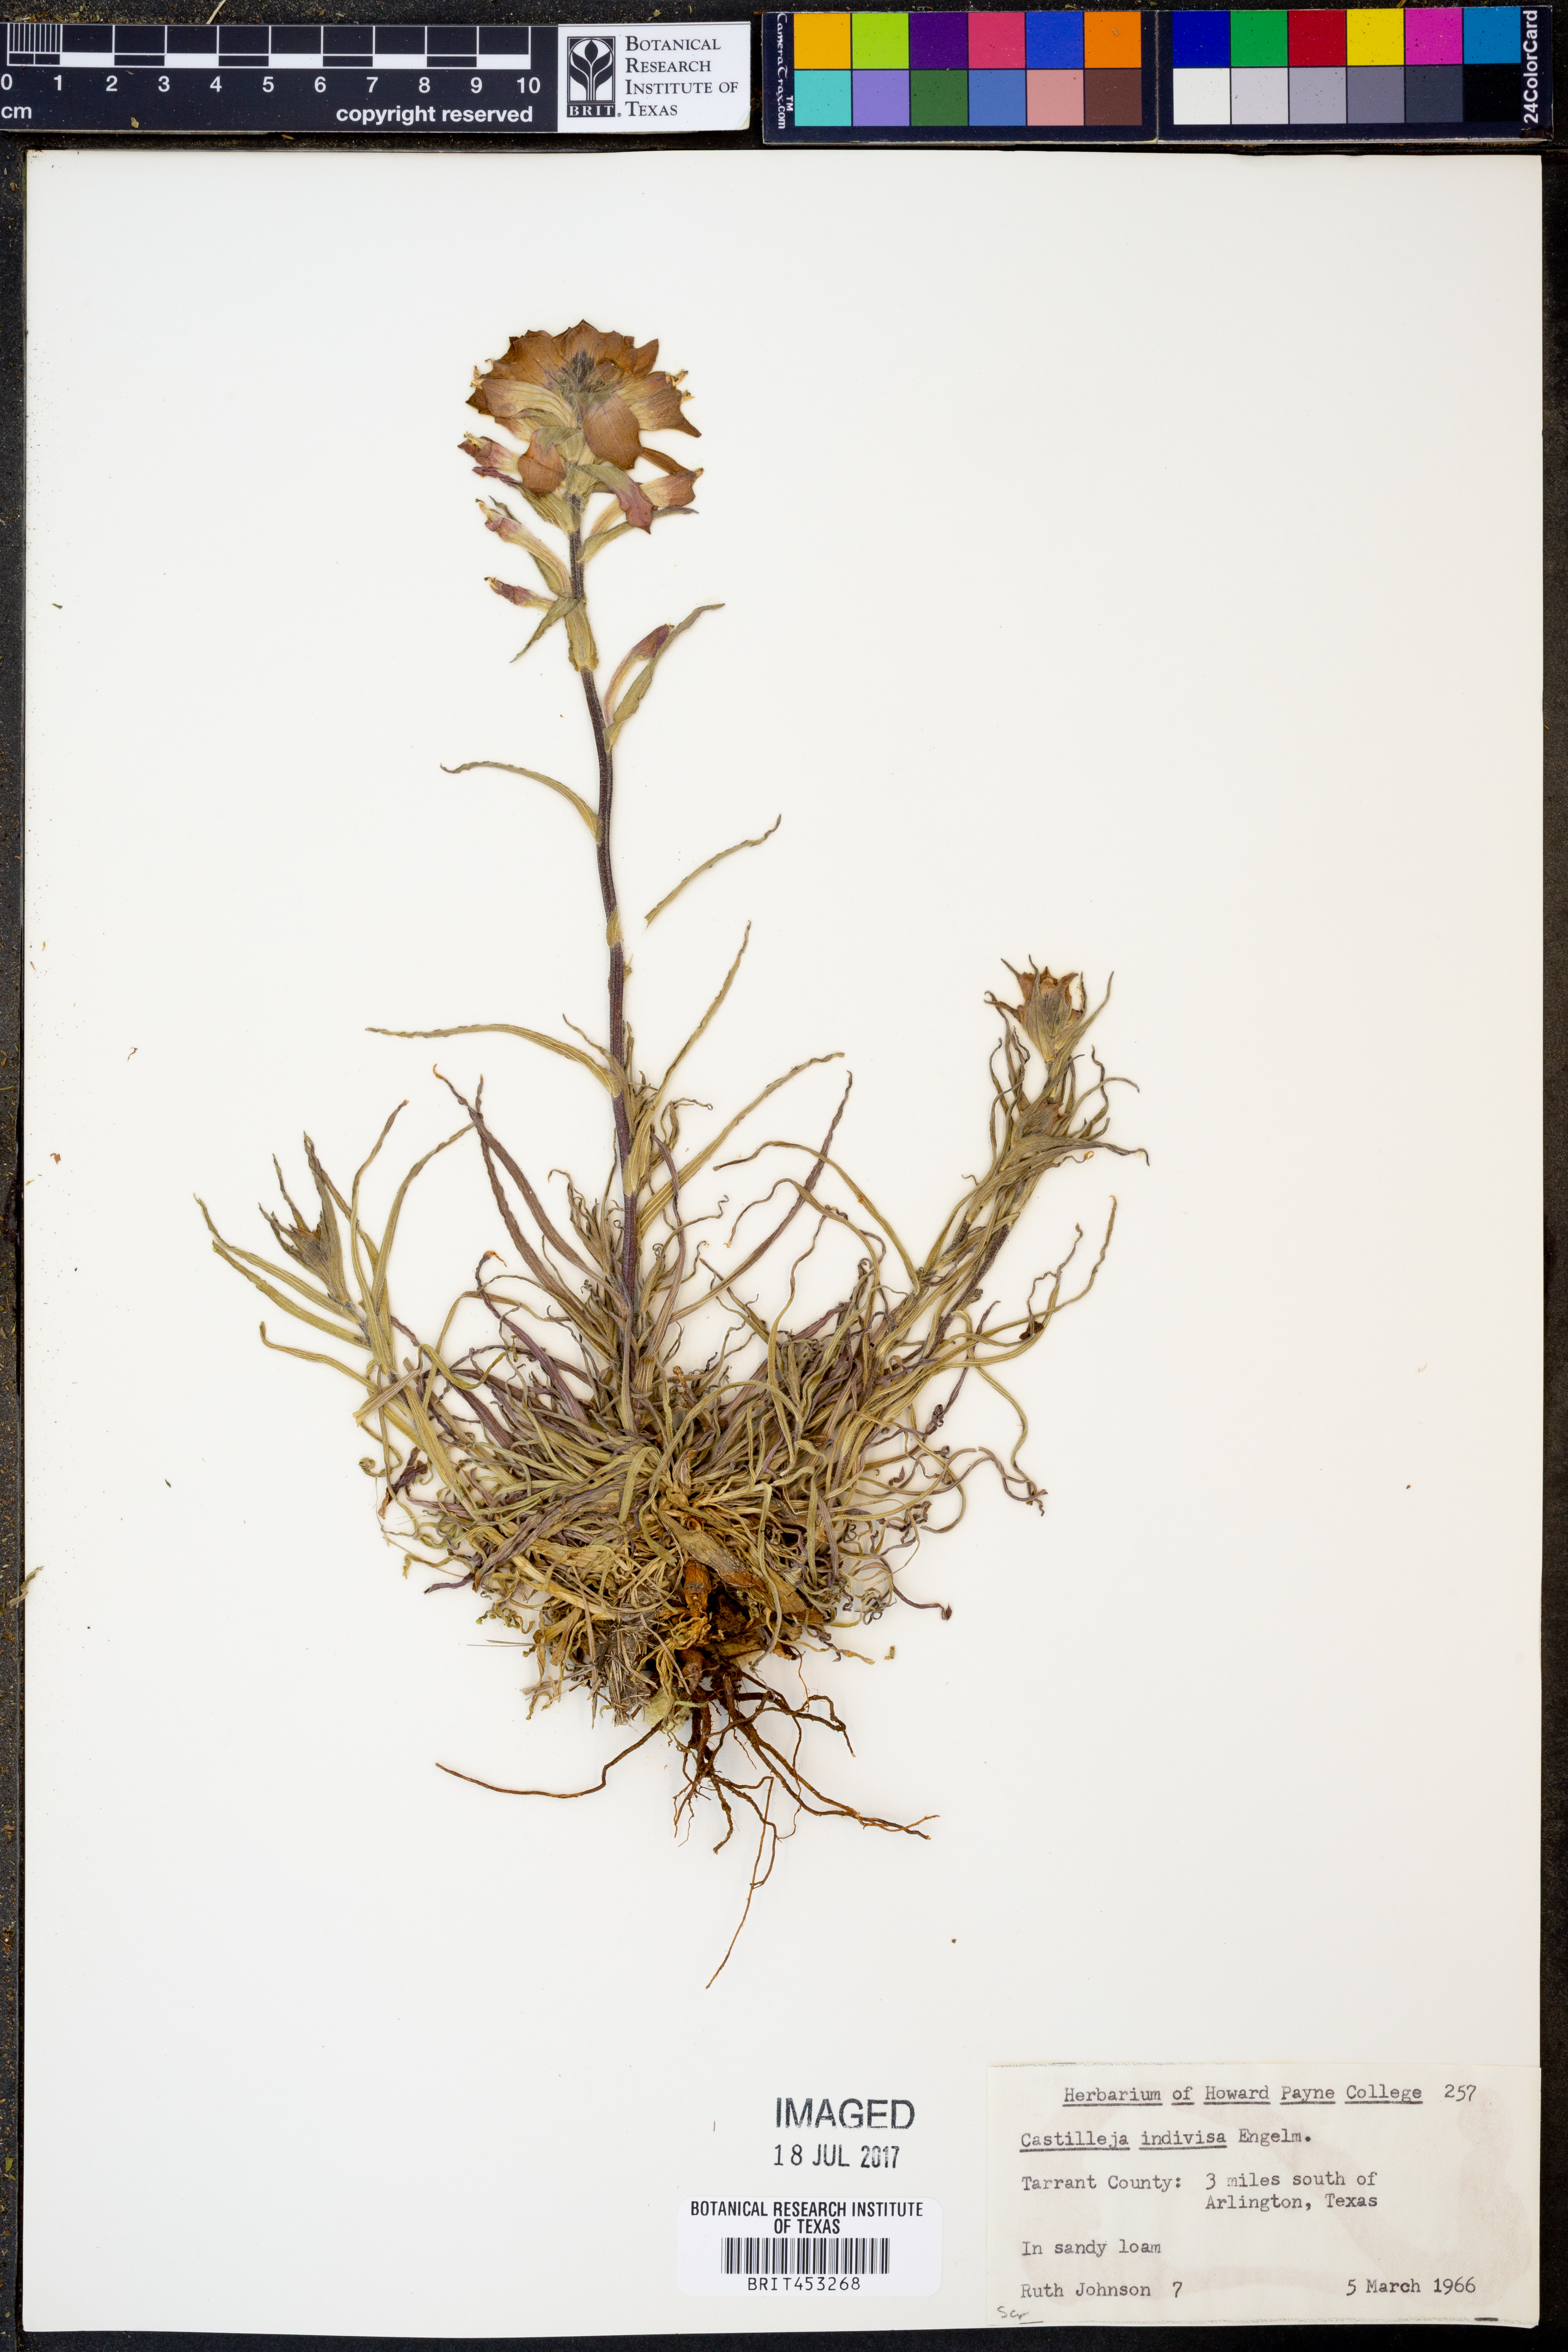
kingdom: Plantae
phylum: Tracheophyta
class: Magnoliopsida
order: Lamiales
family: Orobanchaceae
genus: Castilleja
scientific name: Castilleja indivisa
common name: Texas paintbrush
